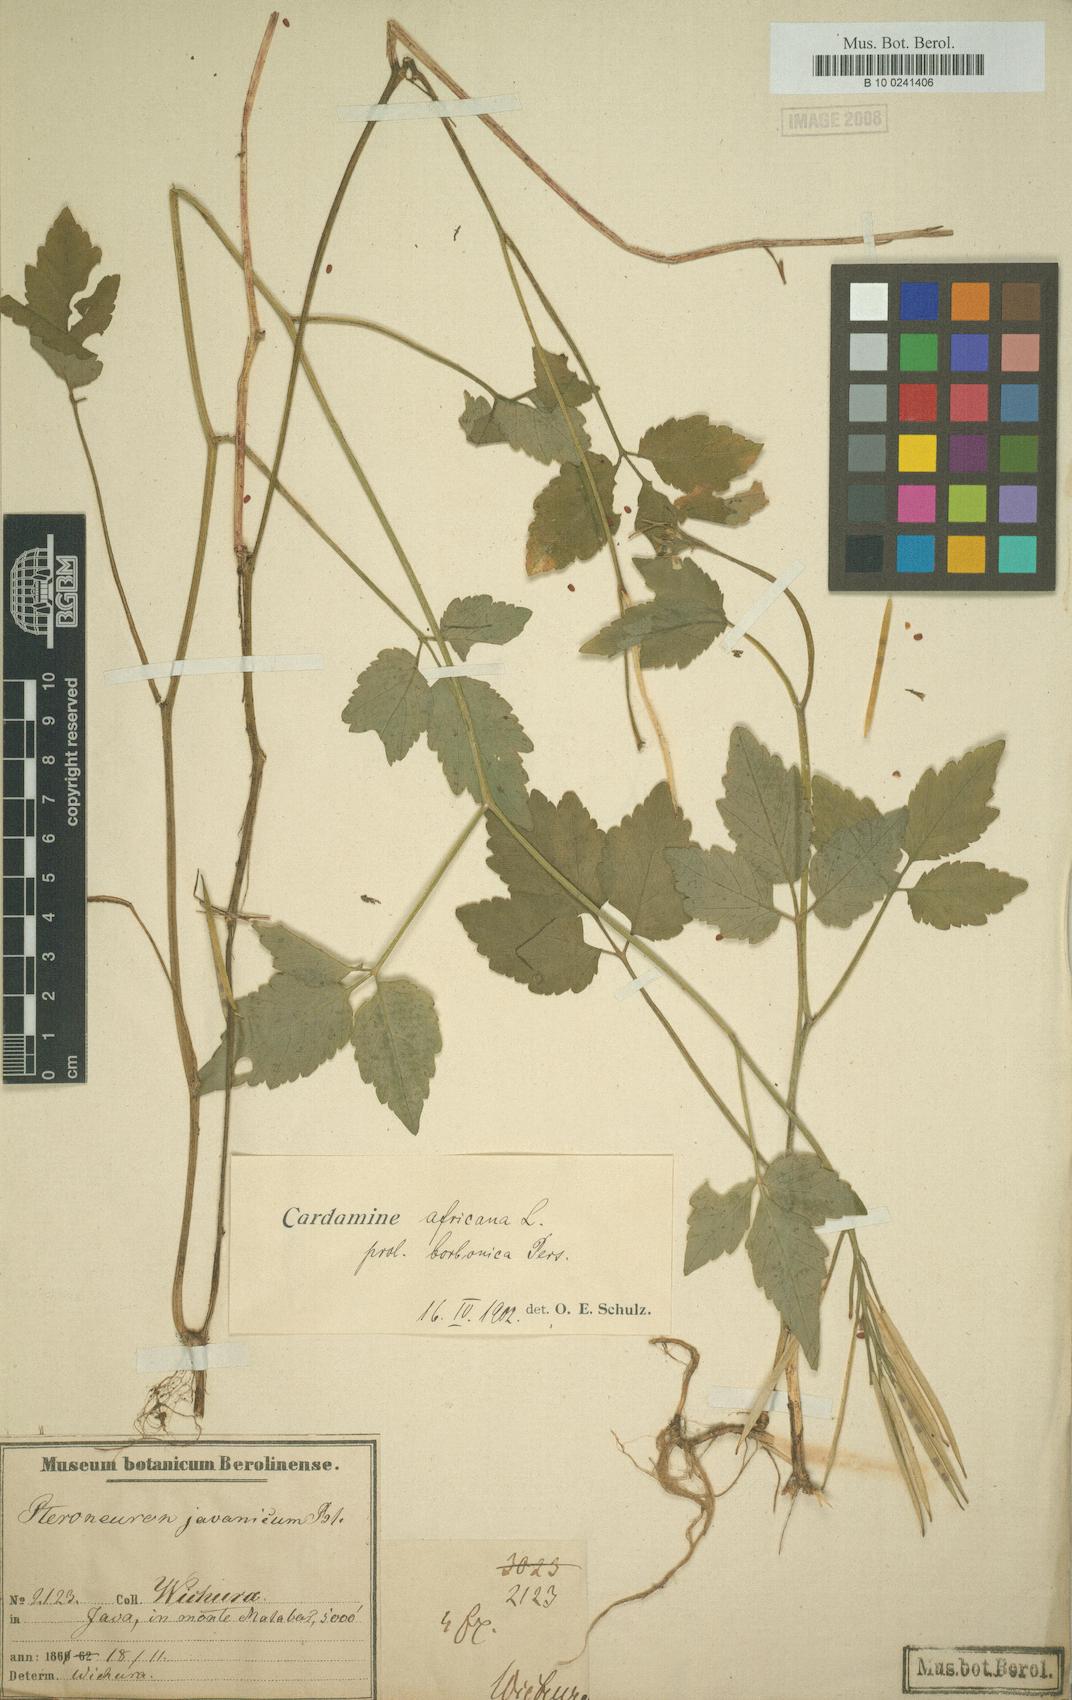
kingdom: Plantae
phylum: Tracheophyta
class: Magnoliopsida
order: Brassicales
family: Brassicaceae
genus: Cardamine
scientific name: Cardamine africana
